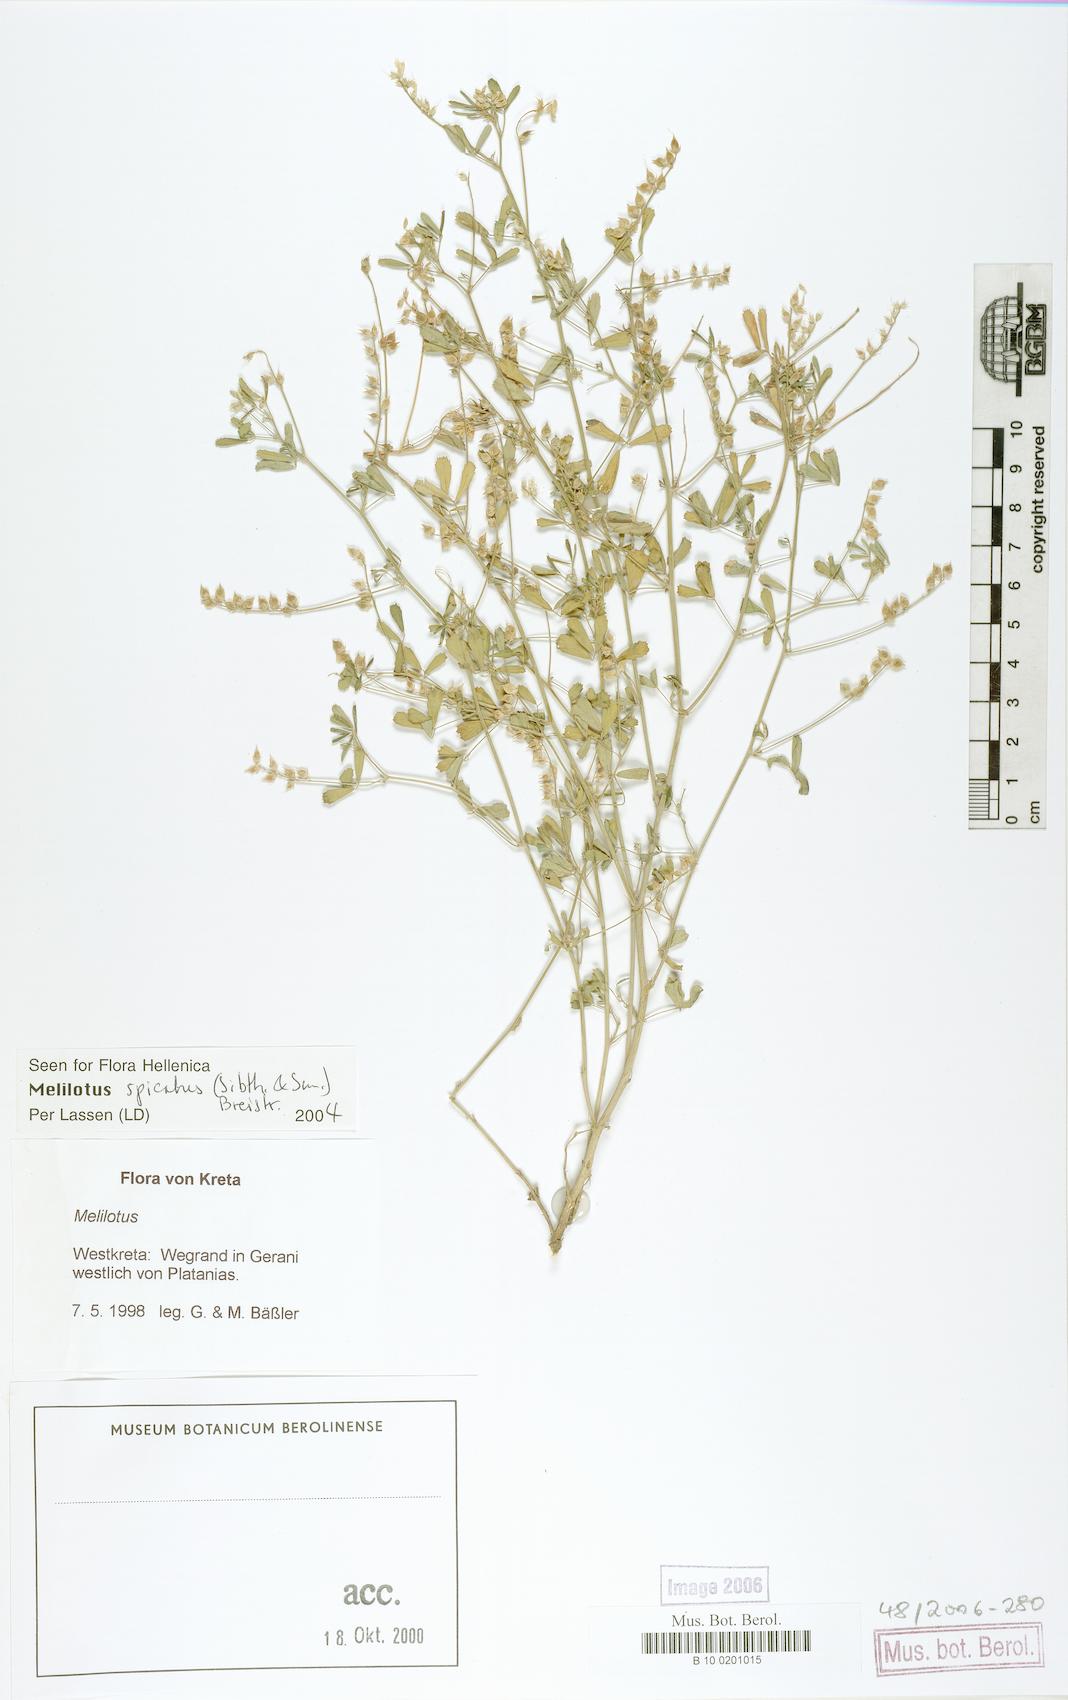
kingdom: Plantae
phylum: Tracheophyta
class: Magnoliopsida
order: Fabales
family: Fabaceae
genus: Melilotus
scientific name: Melilotus neapolitanus
